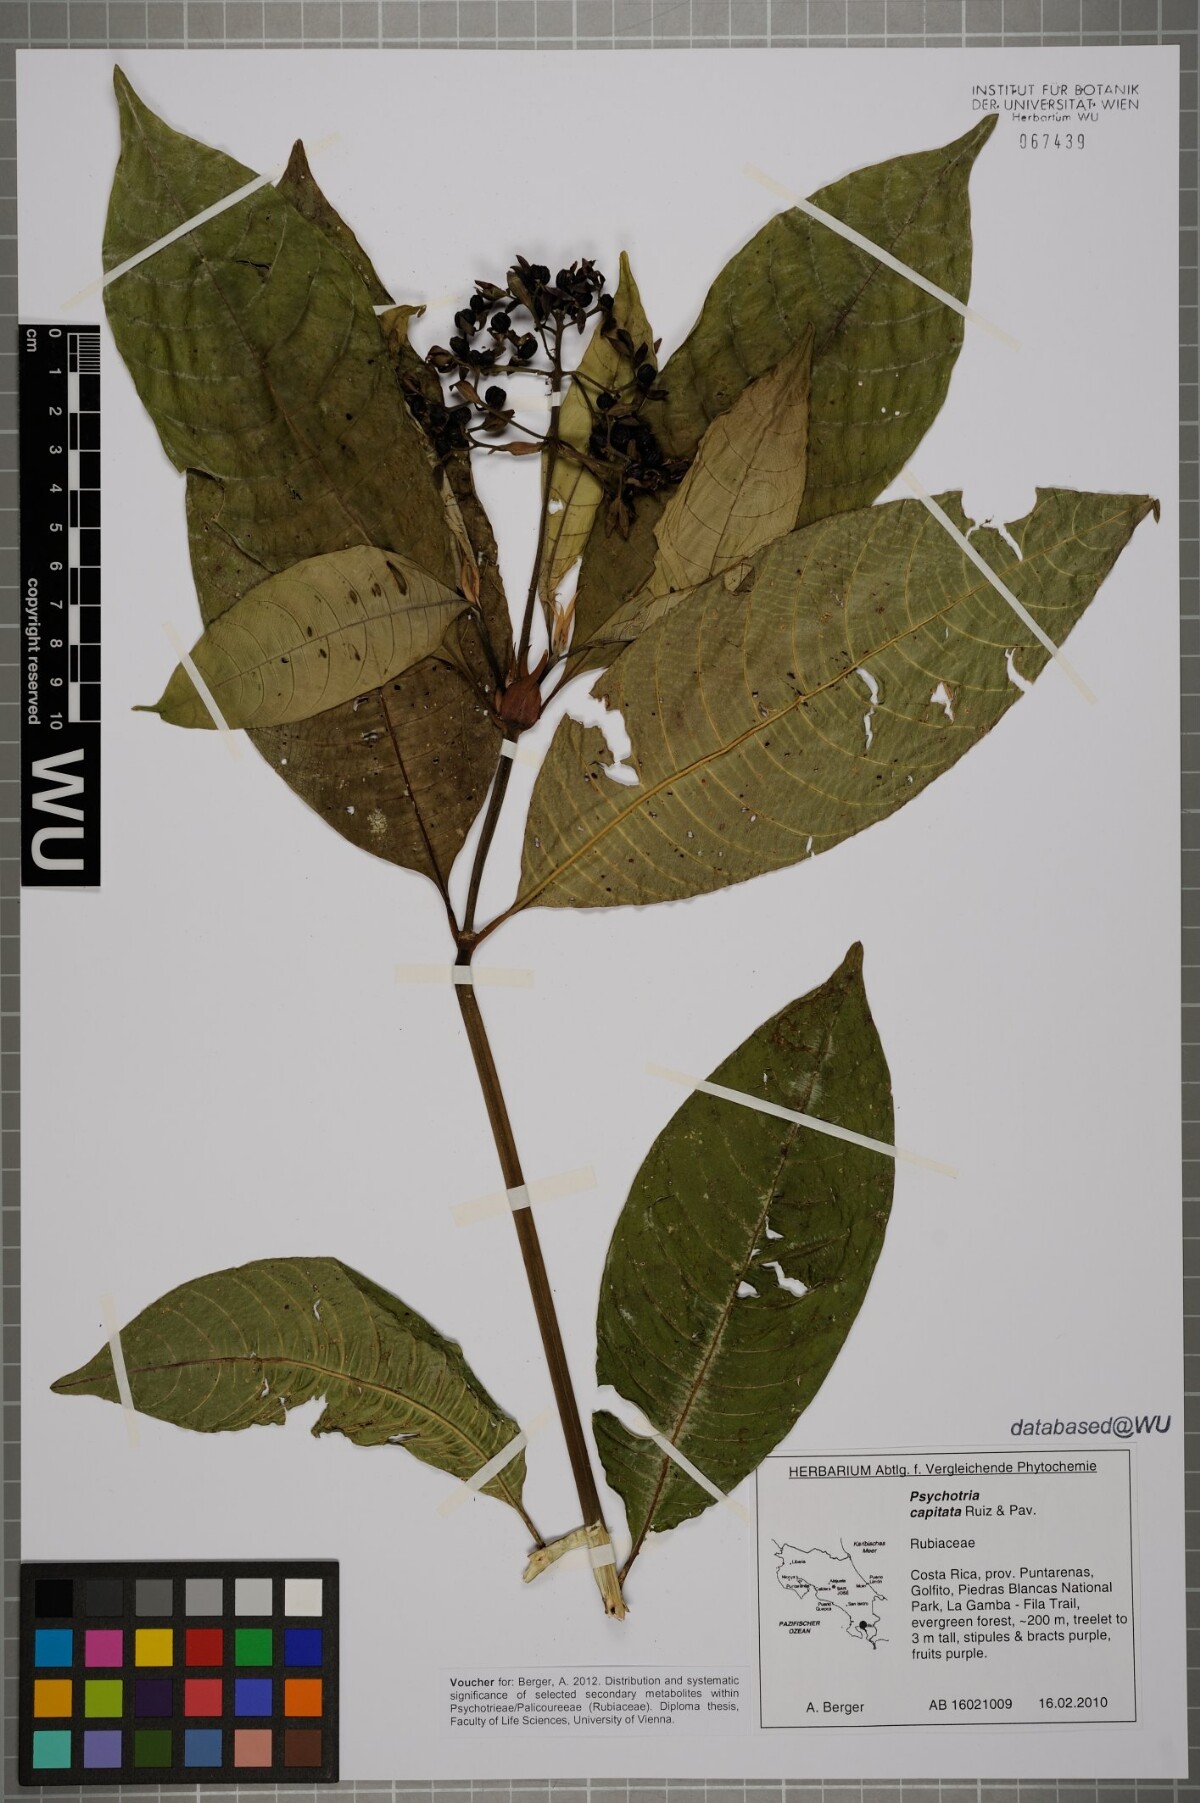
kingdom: Plantae
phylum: Tracheophyta
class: Magnoliopsida
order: Gentianales
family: Rubiaceae
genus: Palicourea
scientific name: Palicourea violacea
